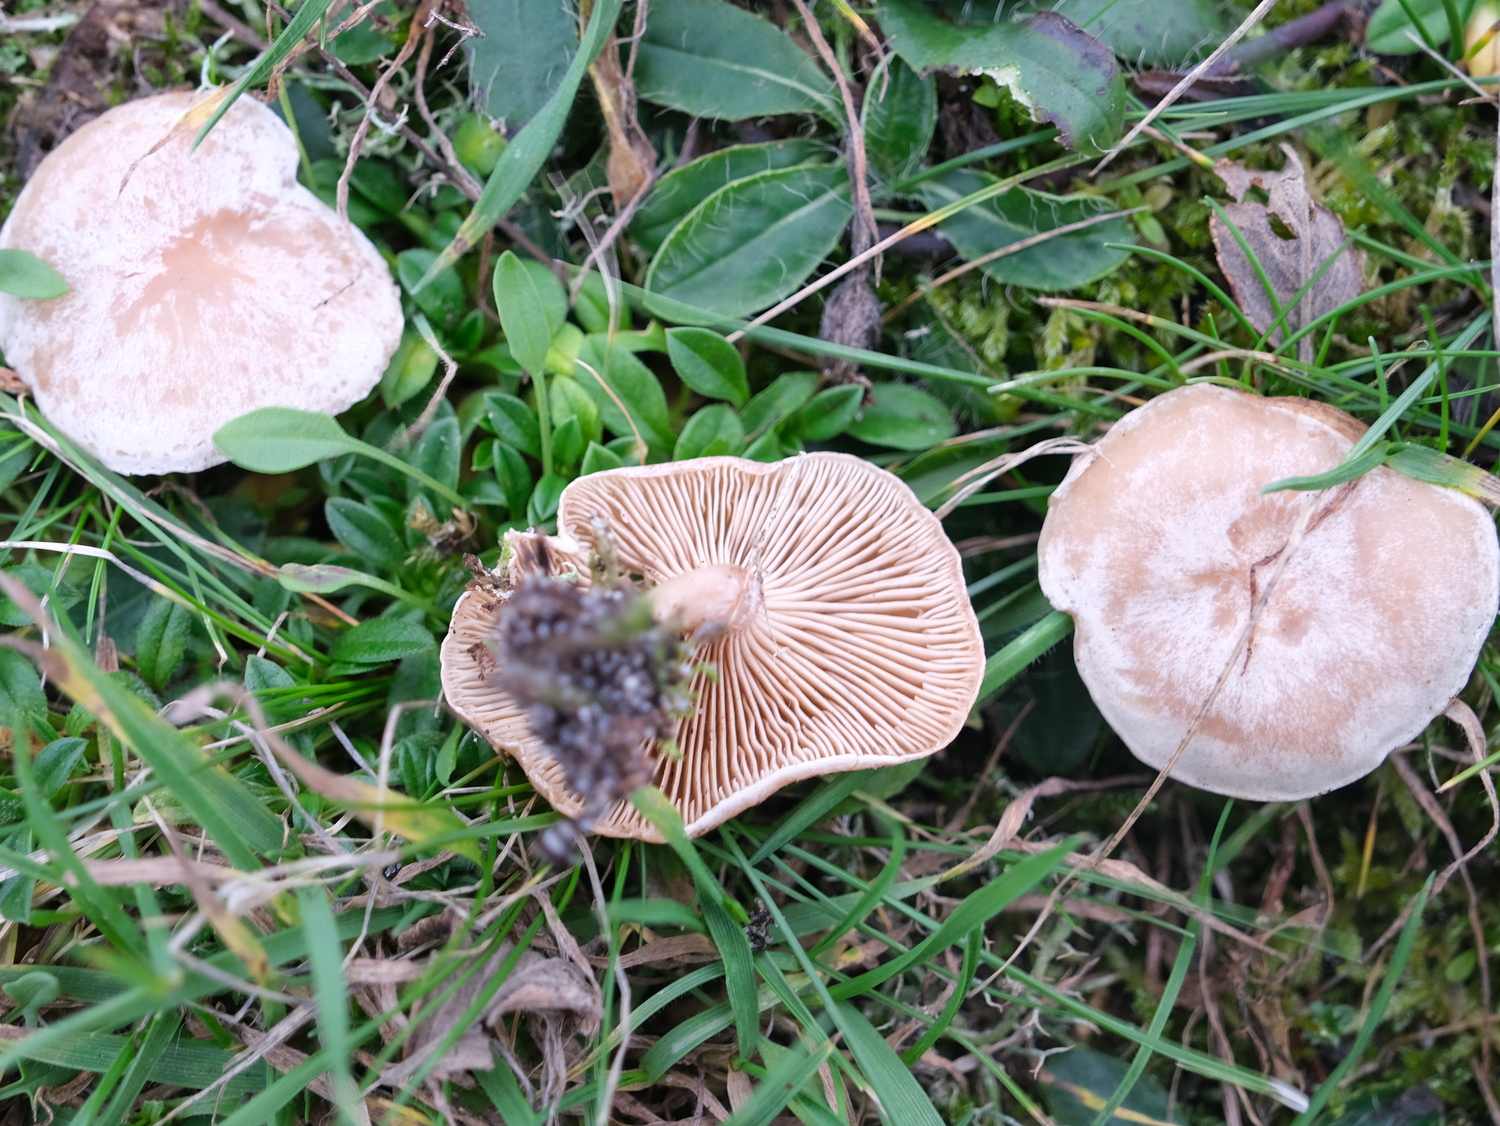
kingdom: Fungi
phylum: Basidiomycota
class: Agaricomycetes
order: Agaricales
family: Tricholomataceae
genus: Clitocybe
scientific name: Clitocybe rivulosa
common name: eng-tragthat
